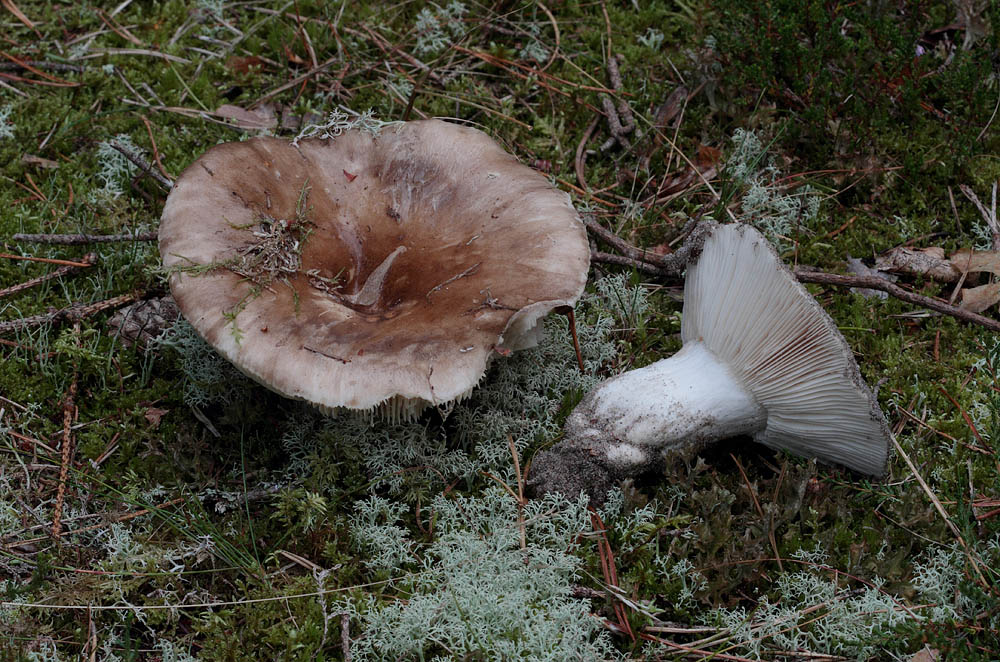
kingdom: Fungi
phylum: Basidiomycota
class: Agaricomycetes
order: Russulales
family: Russulaceae
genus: Russula
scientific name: Russula adusta
